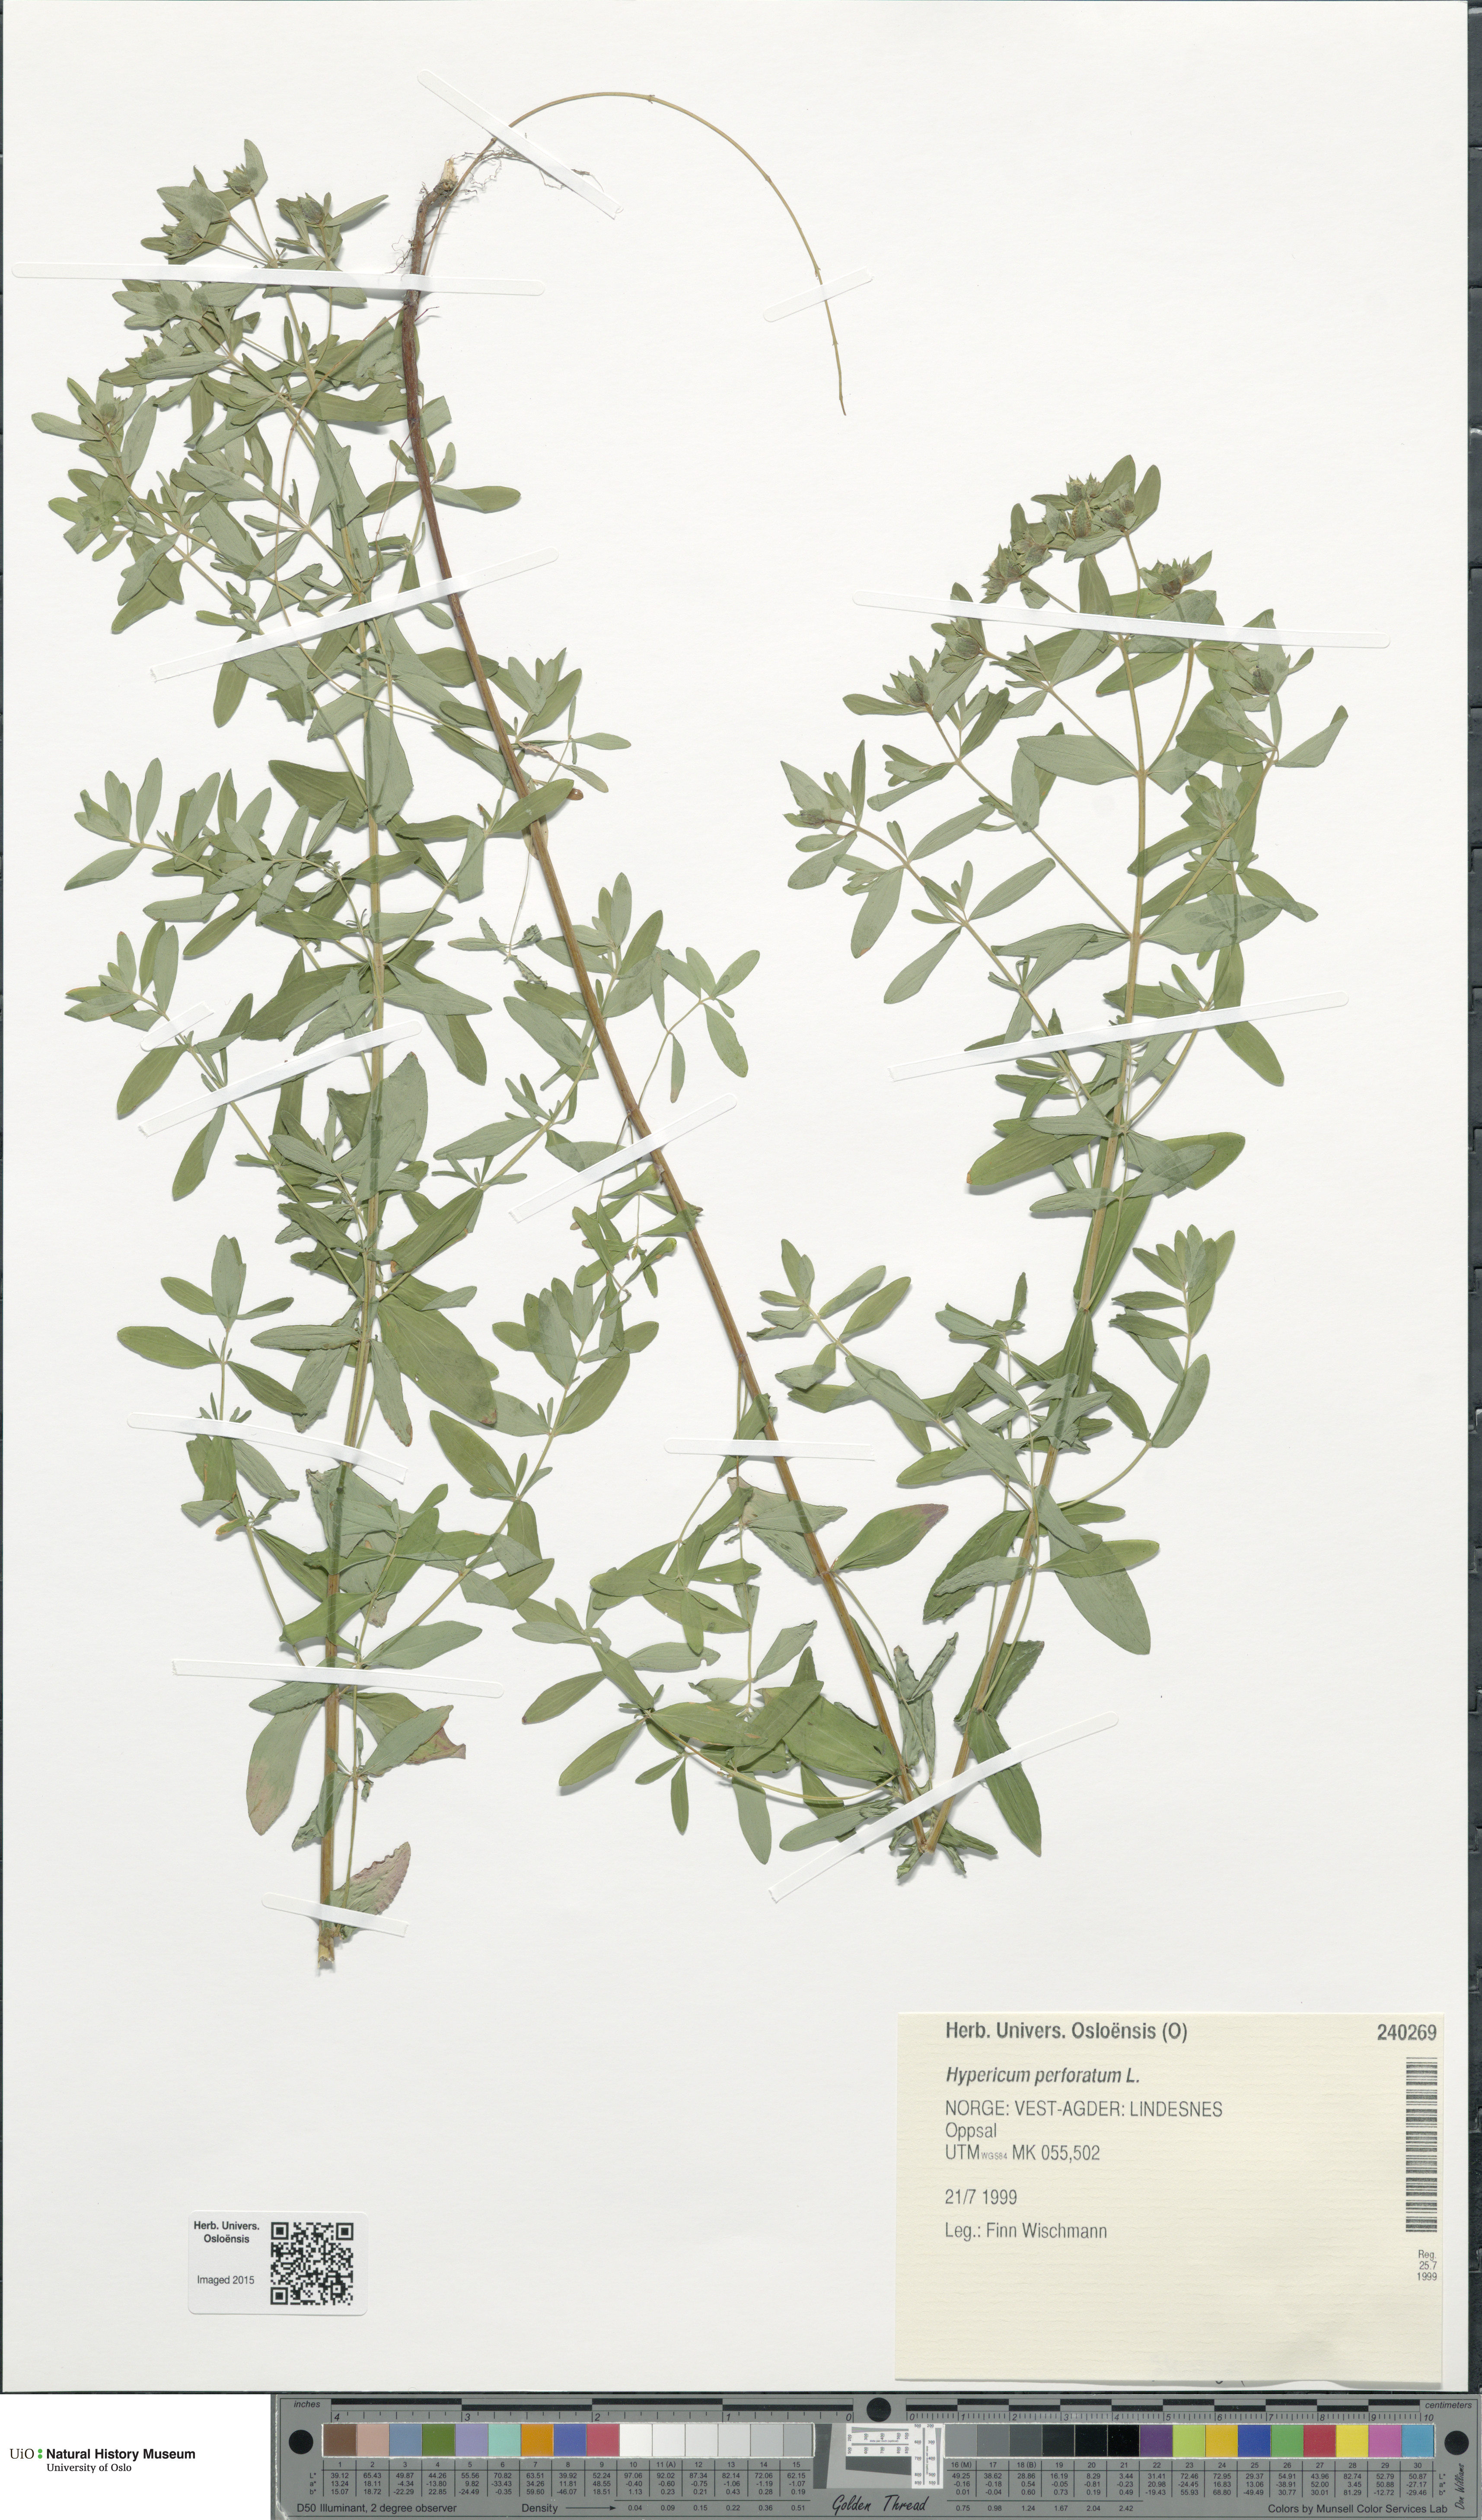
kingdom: Plantae
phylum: Tracheophyta
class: Magnoliopsida
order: Malpighiales
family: Hypericaceae
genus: Hypericum
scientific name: Hypericum perforatum
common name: Common st. johnswort
